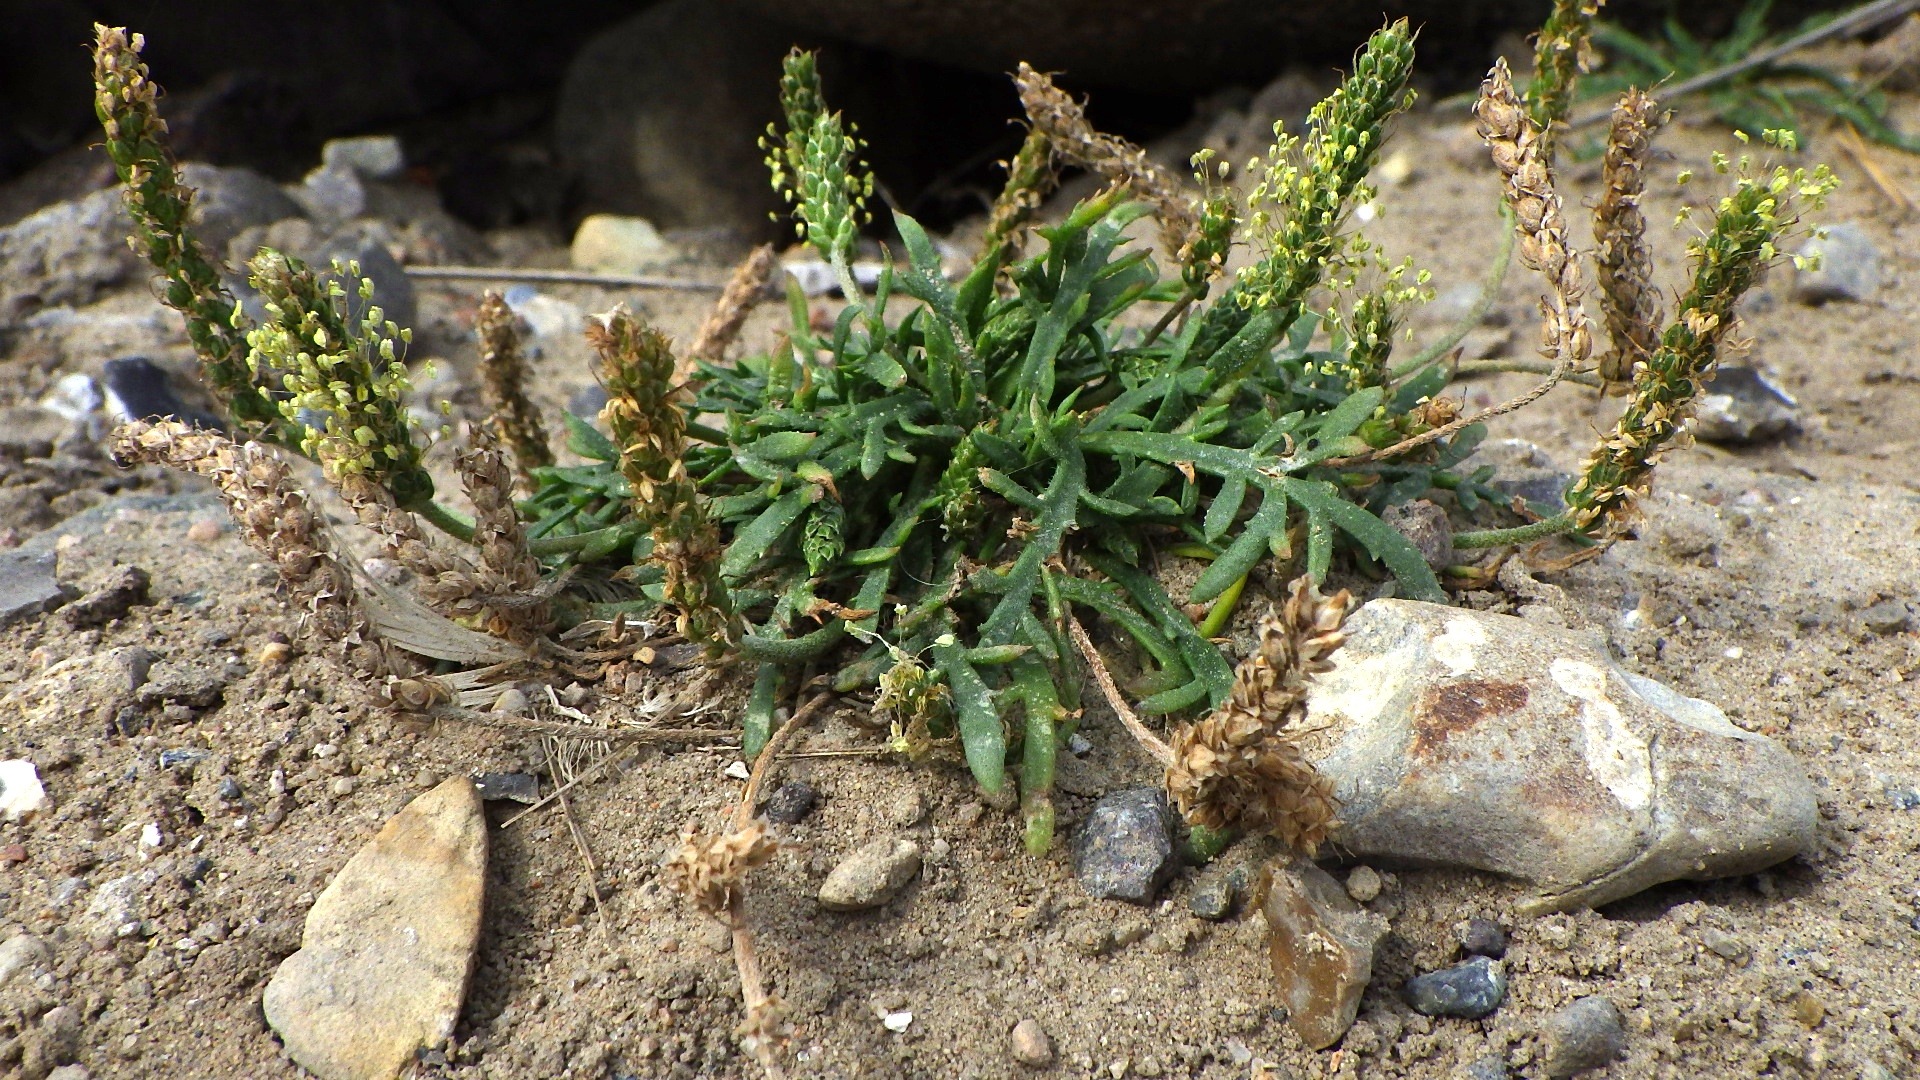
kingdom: Plantae
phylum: Tracheophyta
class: Magnoliopsida
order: Lamiales
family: Plantaginaceae
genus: Plantago
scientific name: Plantago coronopus
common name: Fliget vejbred
